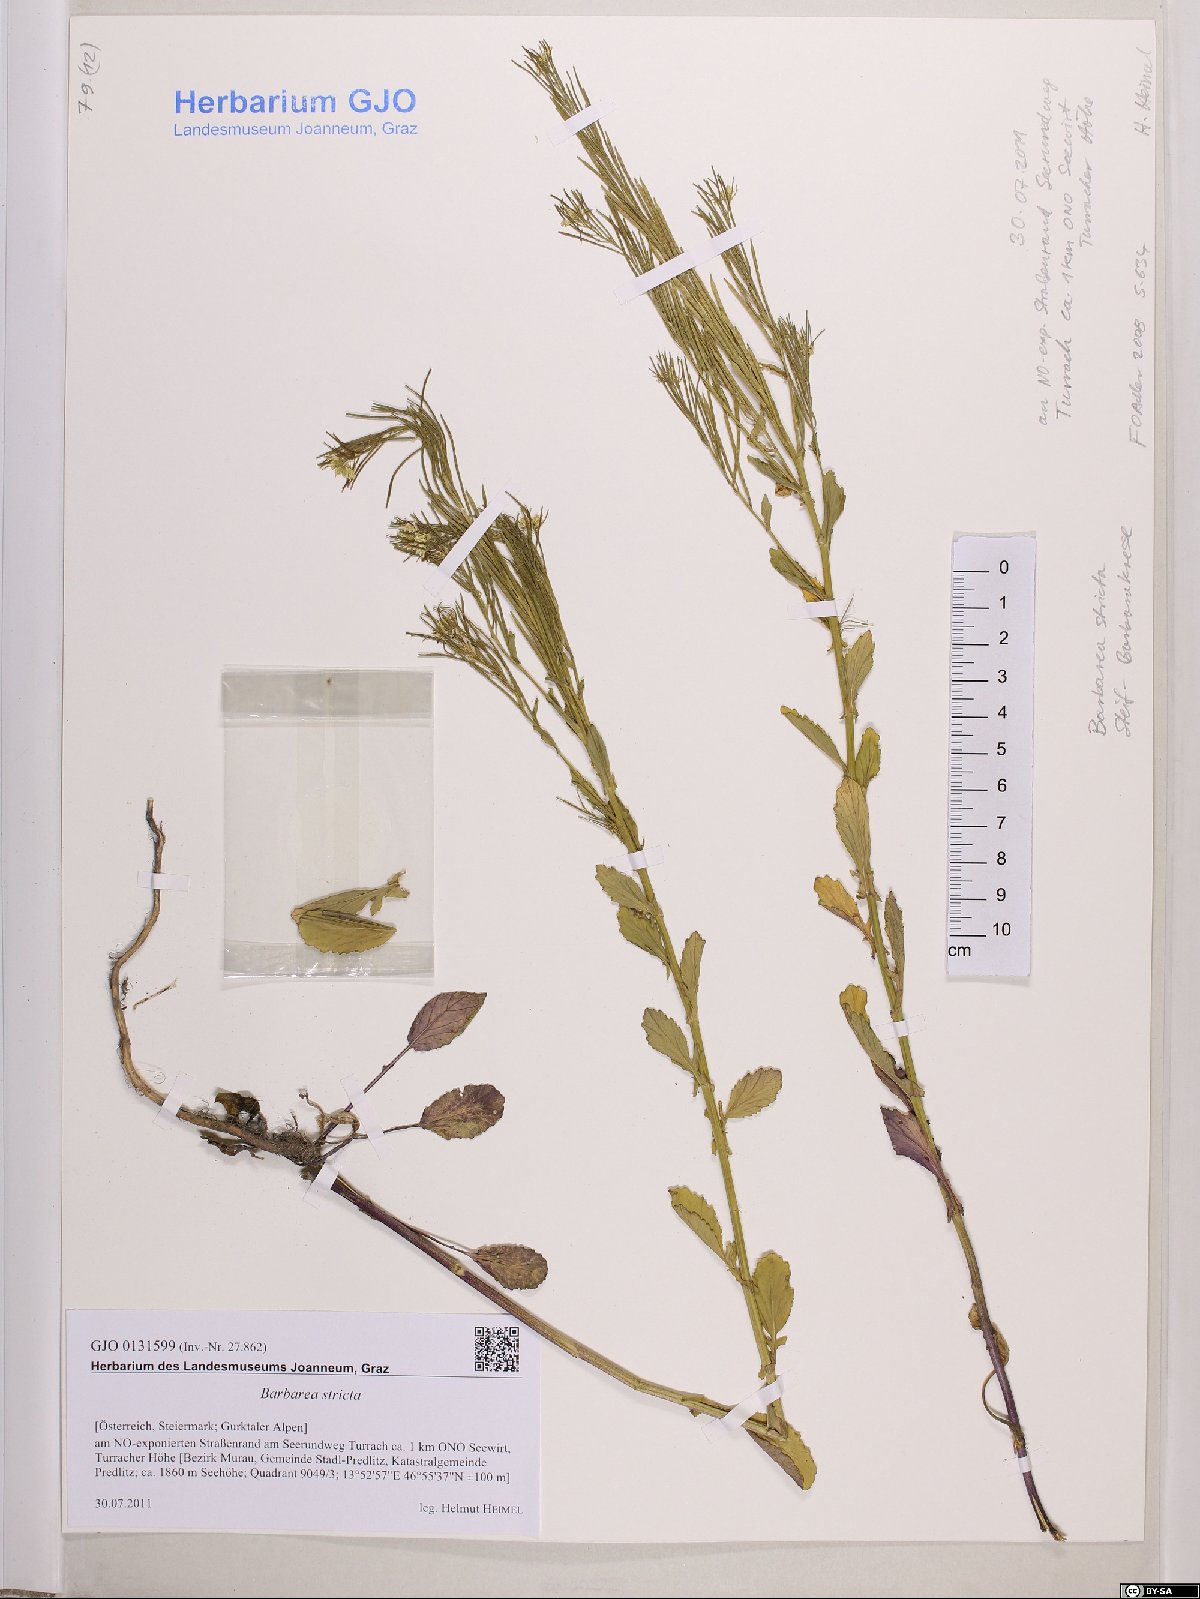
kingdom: Plantae
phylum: Tracheophyta
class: Magnoliopsida
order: Brassicales
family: Brassicaceae
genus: Barbarea
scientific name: Barbarea stricta
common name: Small-flowered winter-cress
